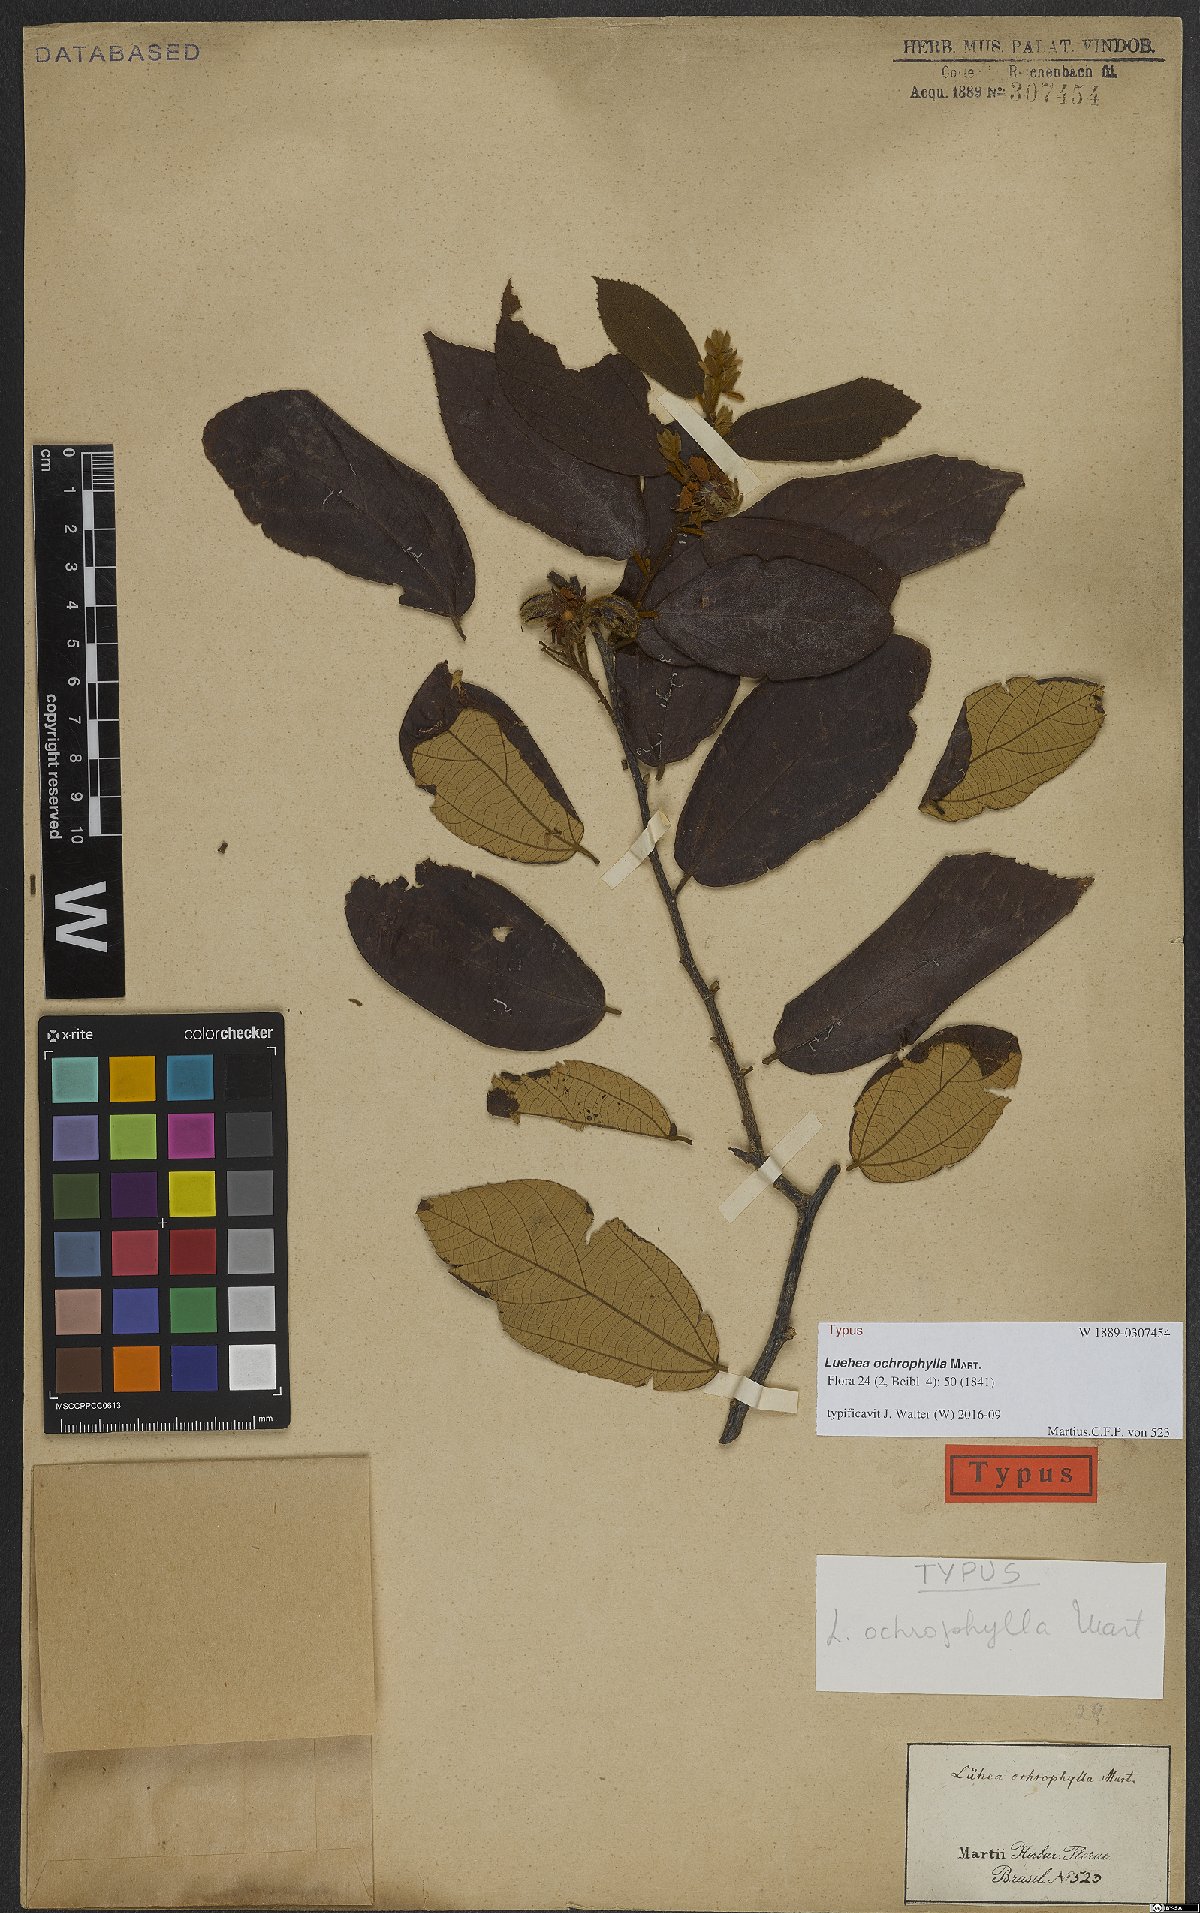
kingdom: Plantae
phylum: Tracheophyta
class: Magnoliopsida
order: Malvales
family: Malvaceae
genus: Luehea
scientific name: Luehea ochrophylla
